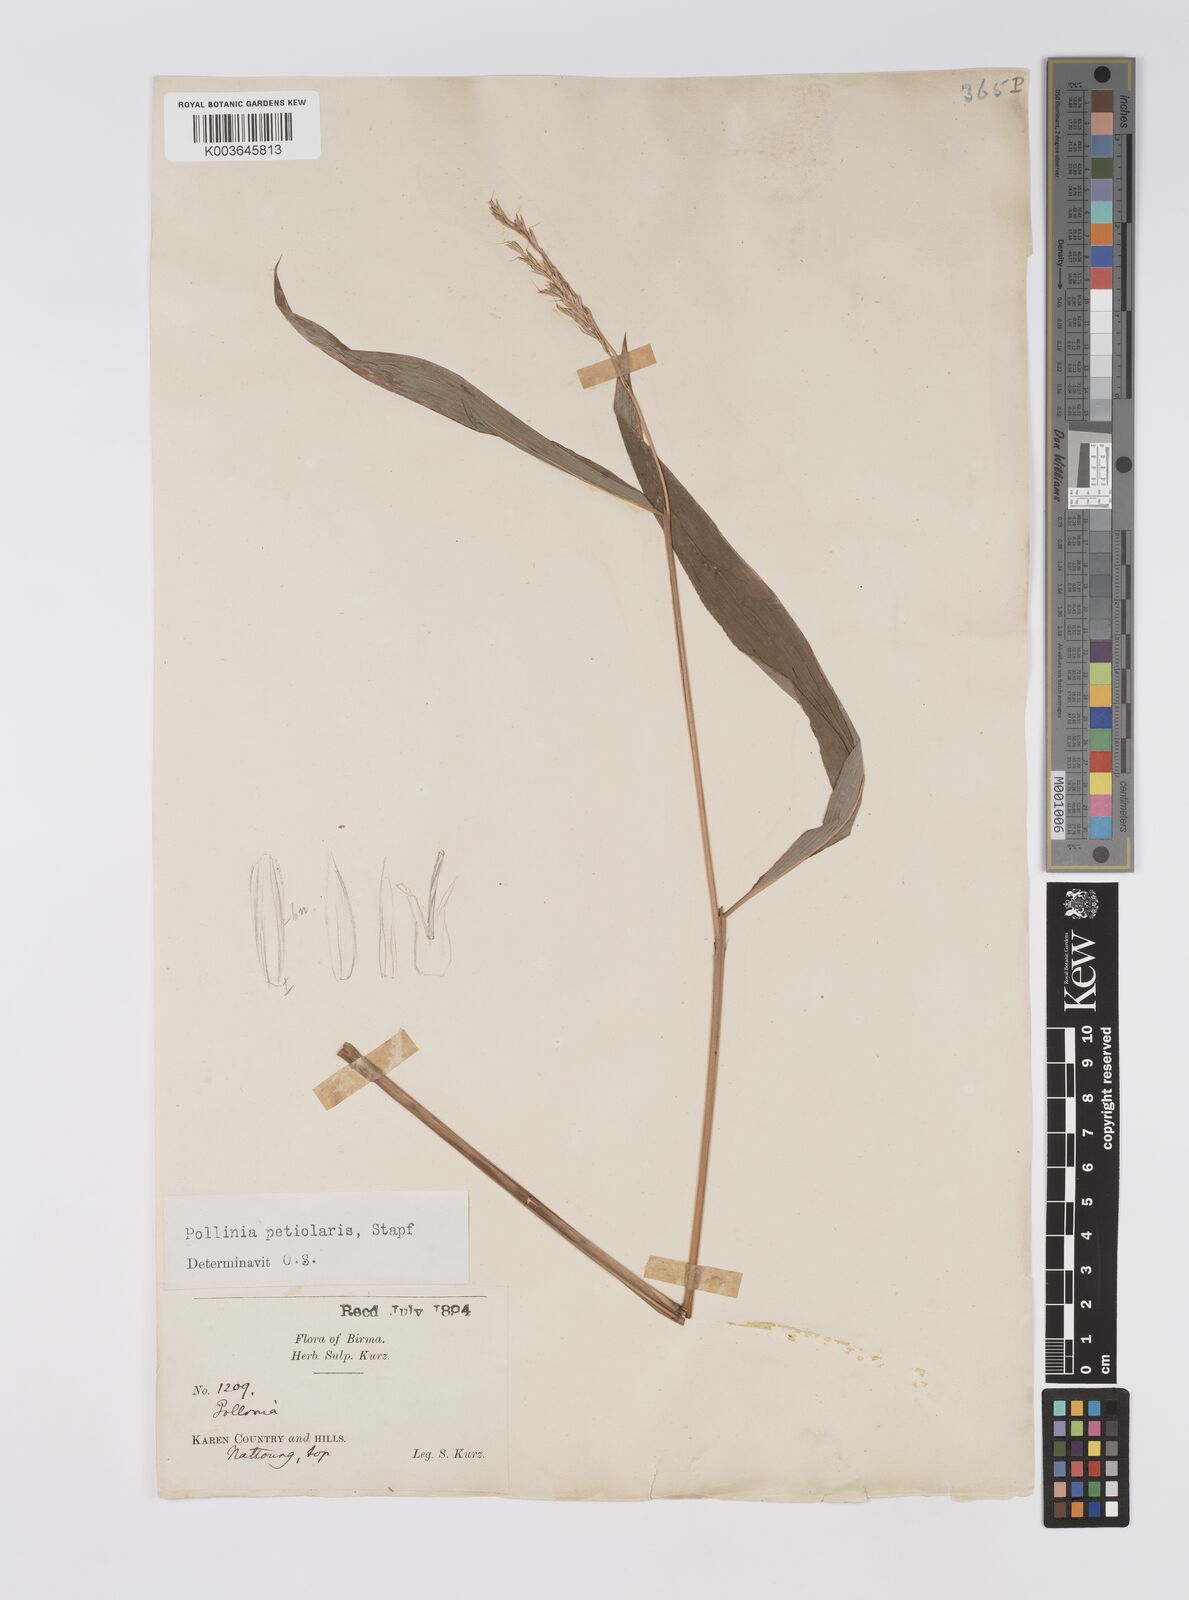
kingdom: Plantae
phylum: Tracheophyta
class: Liliopsida
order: Poales
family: Poaceae
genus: Microstegium
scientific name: Microstegium petiolare
